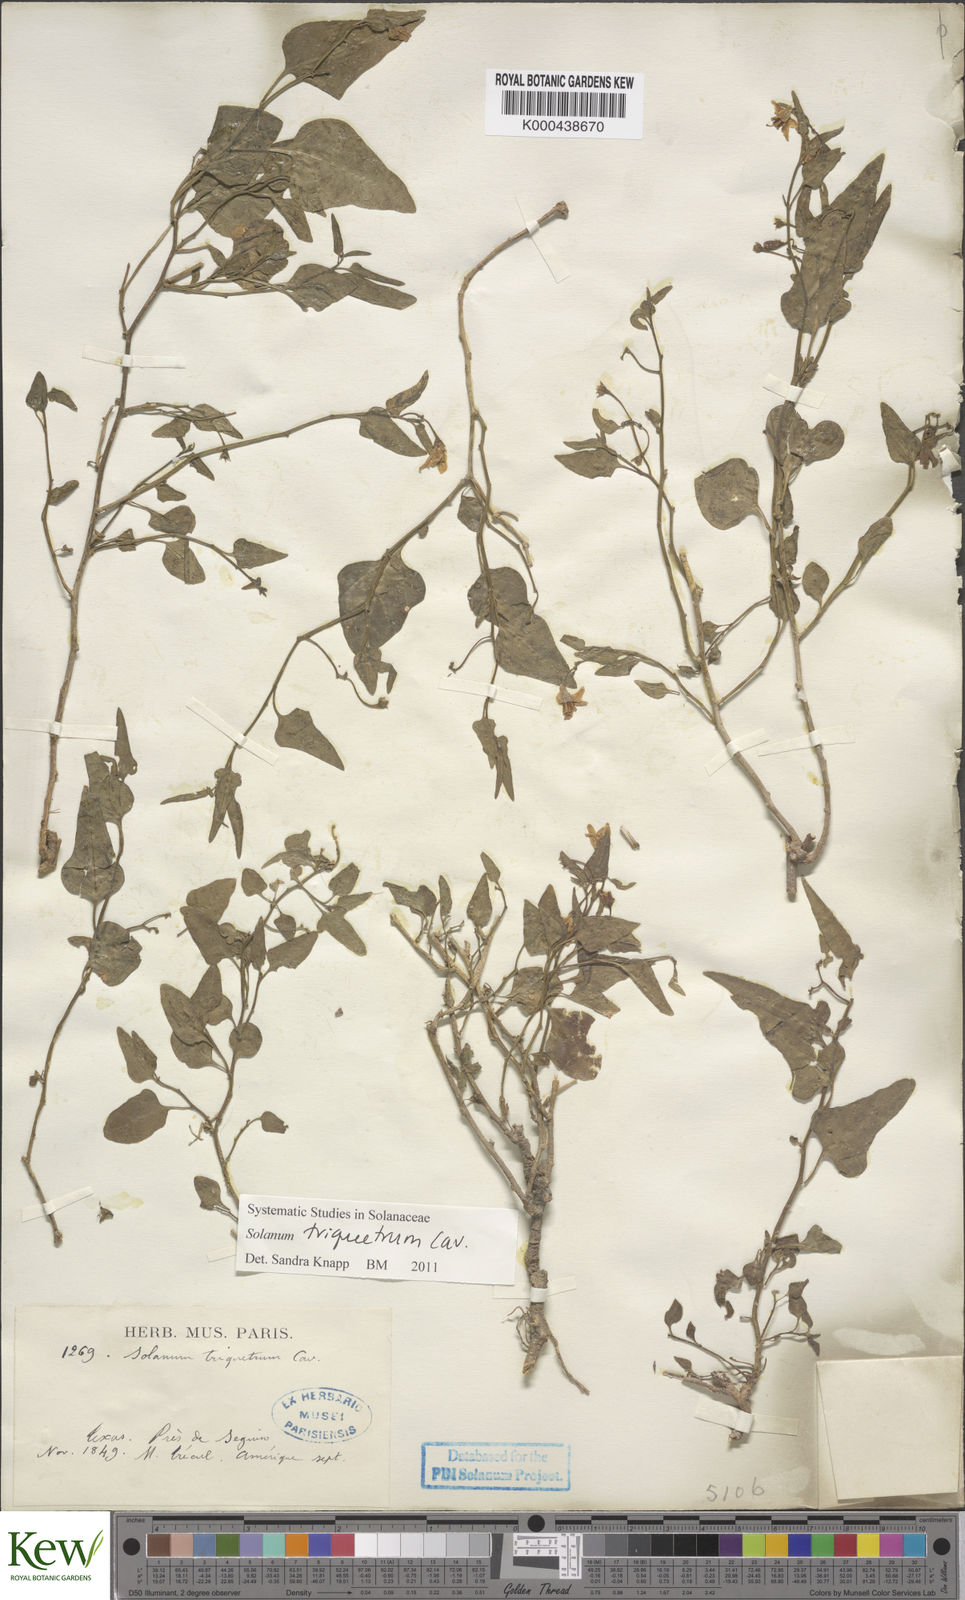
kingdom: Plantae
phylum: Tracheophyta
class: Magnoliopsida
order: Solanales
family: Solanaceae
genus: Solanum
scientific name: Solanum triquetrum
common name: Texas nightshade
